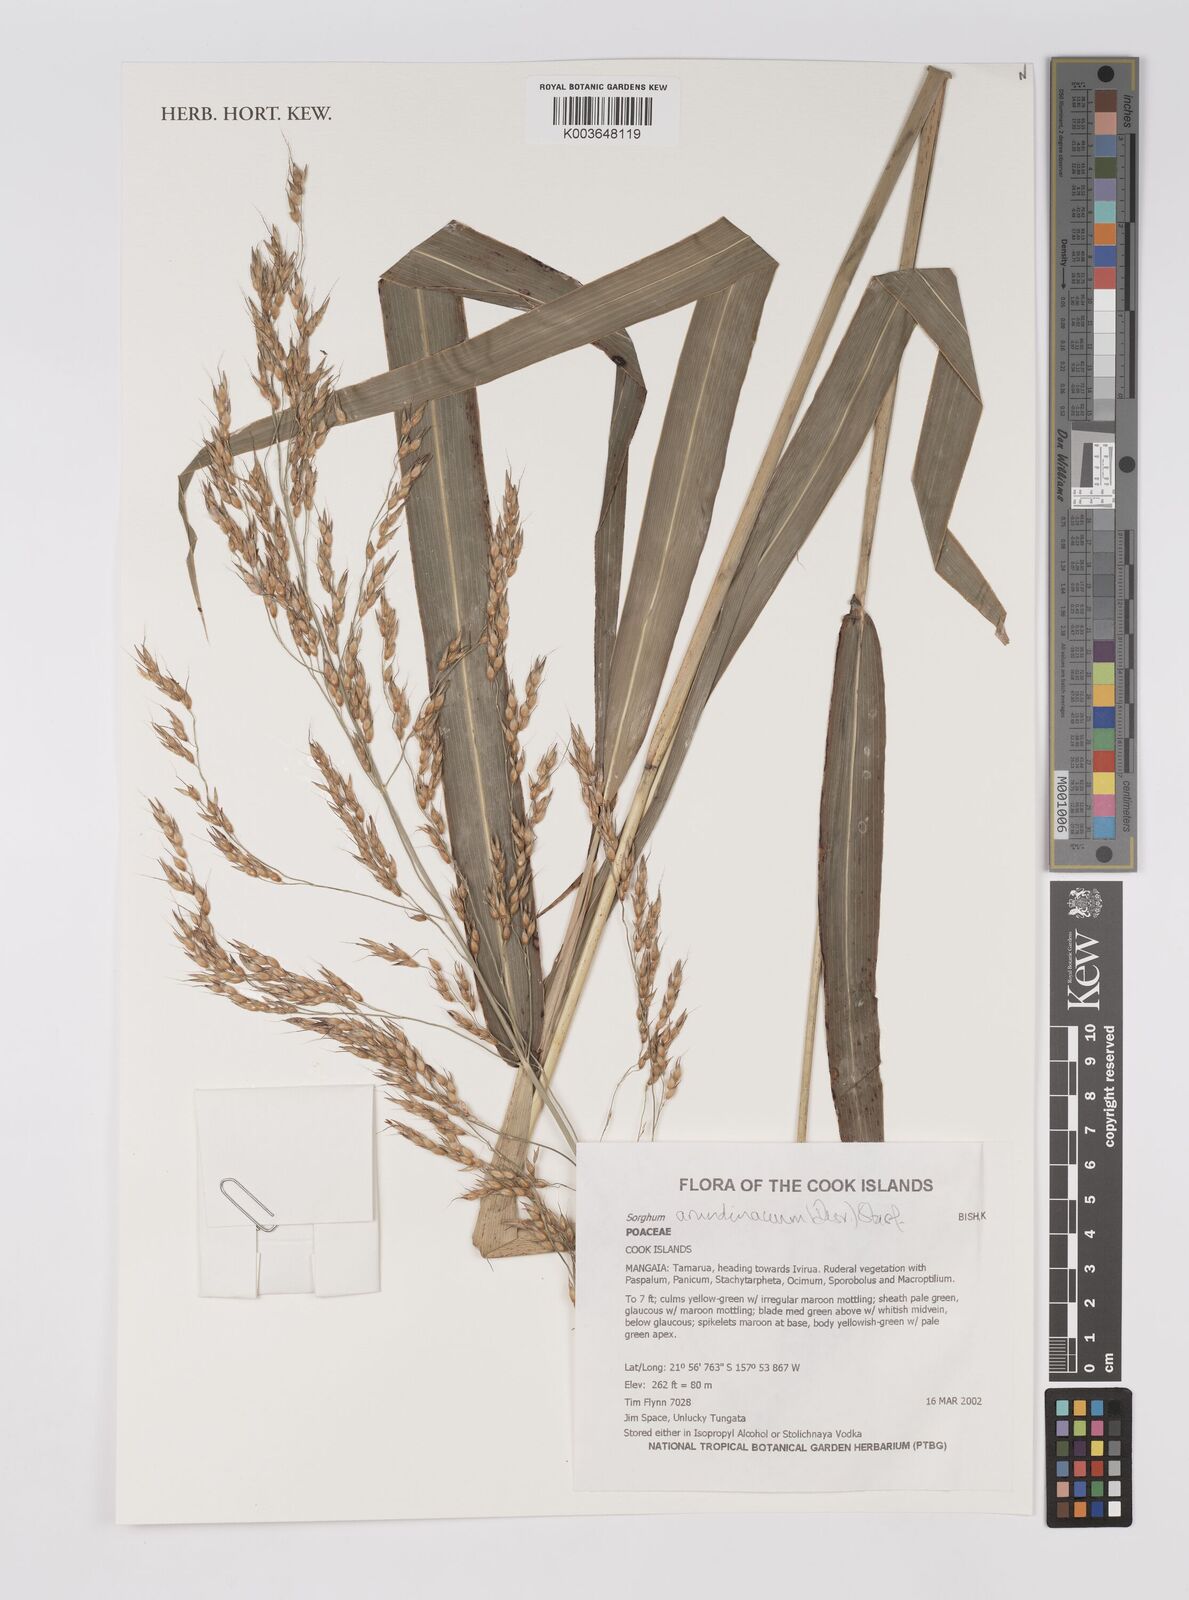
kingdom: Plantae
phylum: Tracheophyta
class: Liliopsida
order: Poales
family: Poaceae
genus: Sorghum
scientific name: Sorghum arundinaceum
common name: Sorghum
